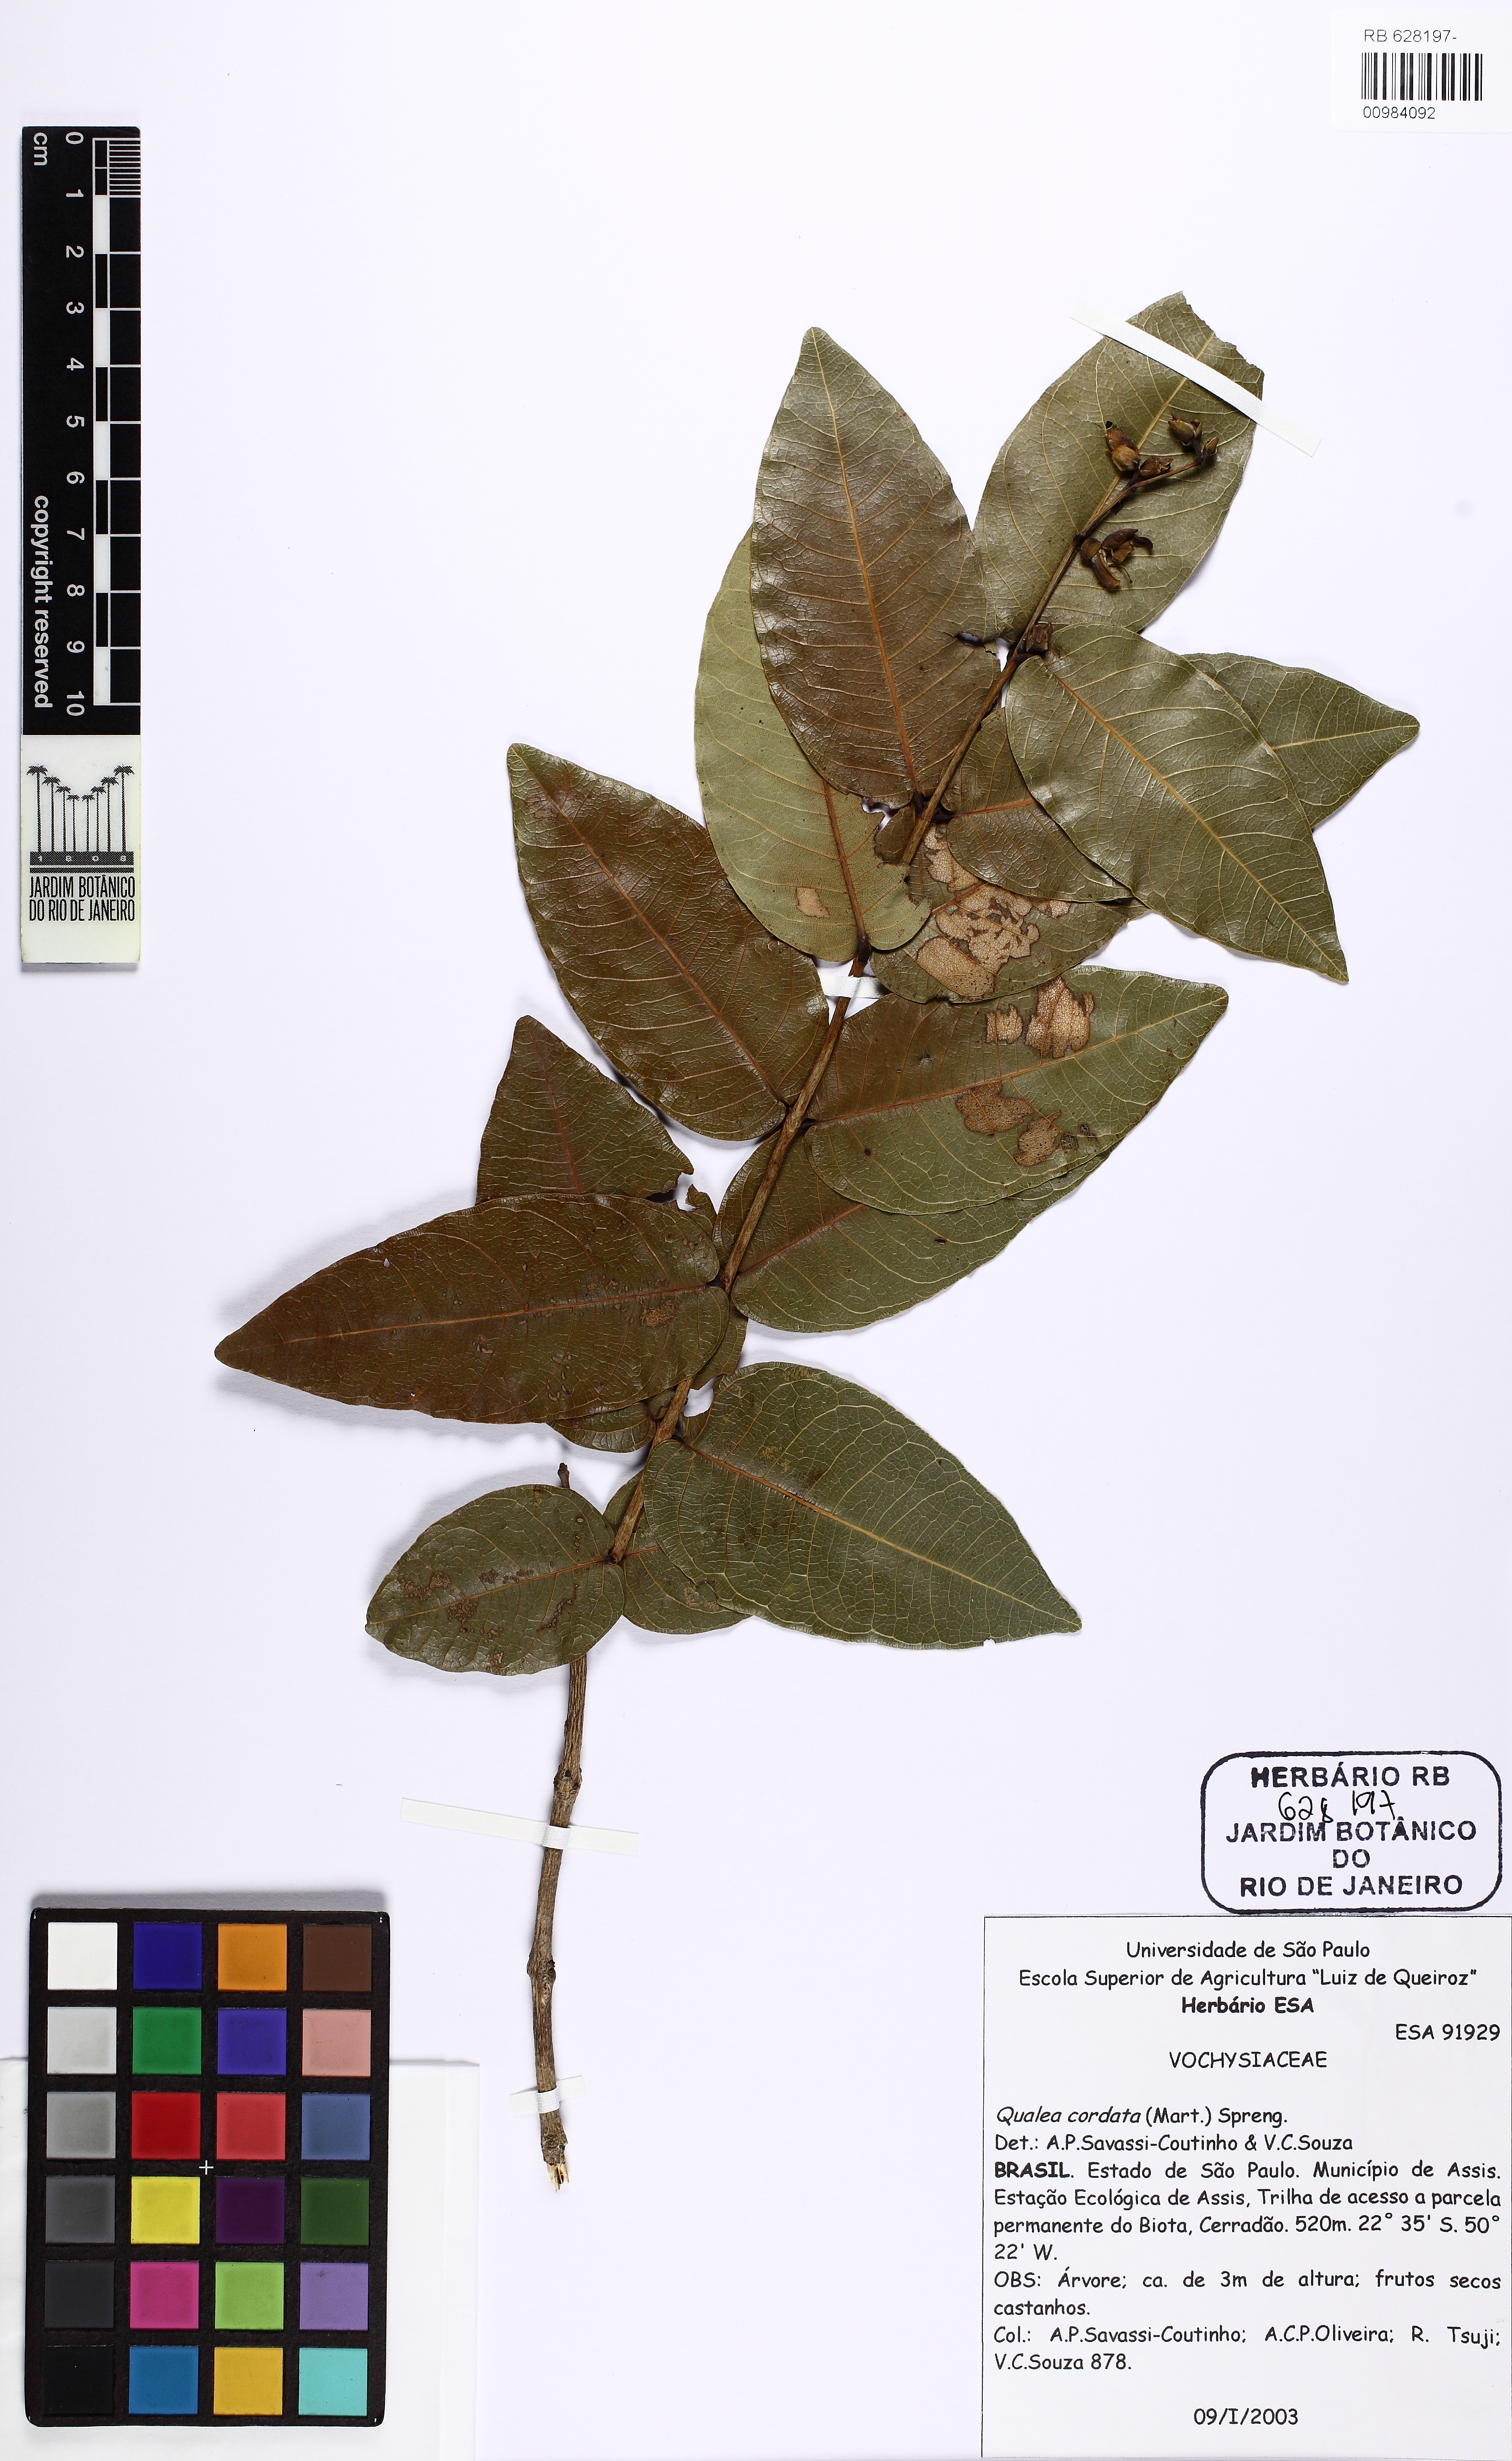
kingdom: Plantae
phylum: Tracheophyta
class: Magnoliopsida
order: Myrtales
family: Vochysiaceae
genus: Qualea
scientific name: Qualea cordata
